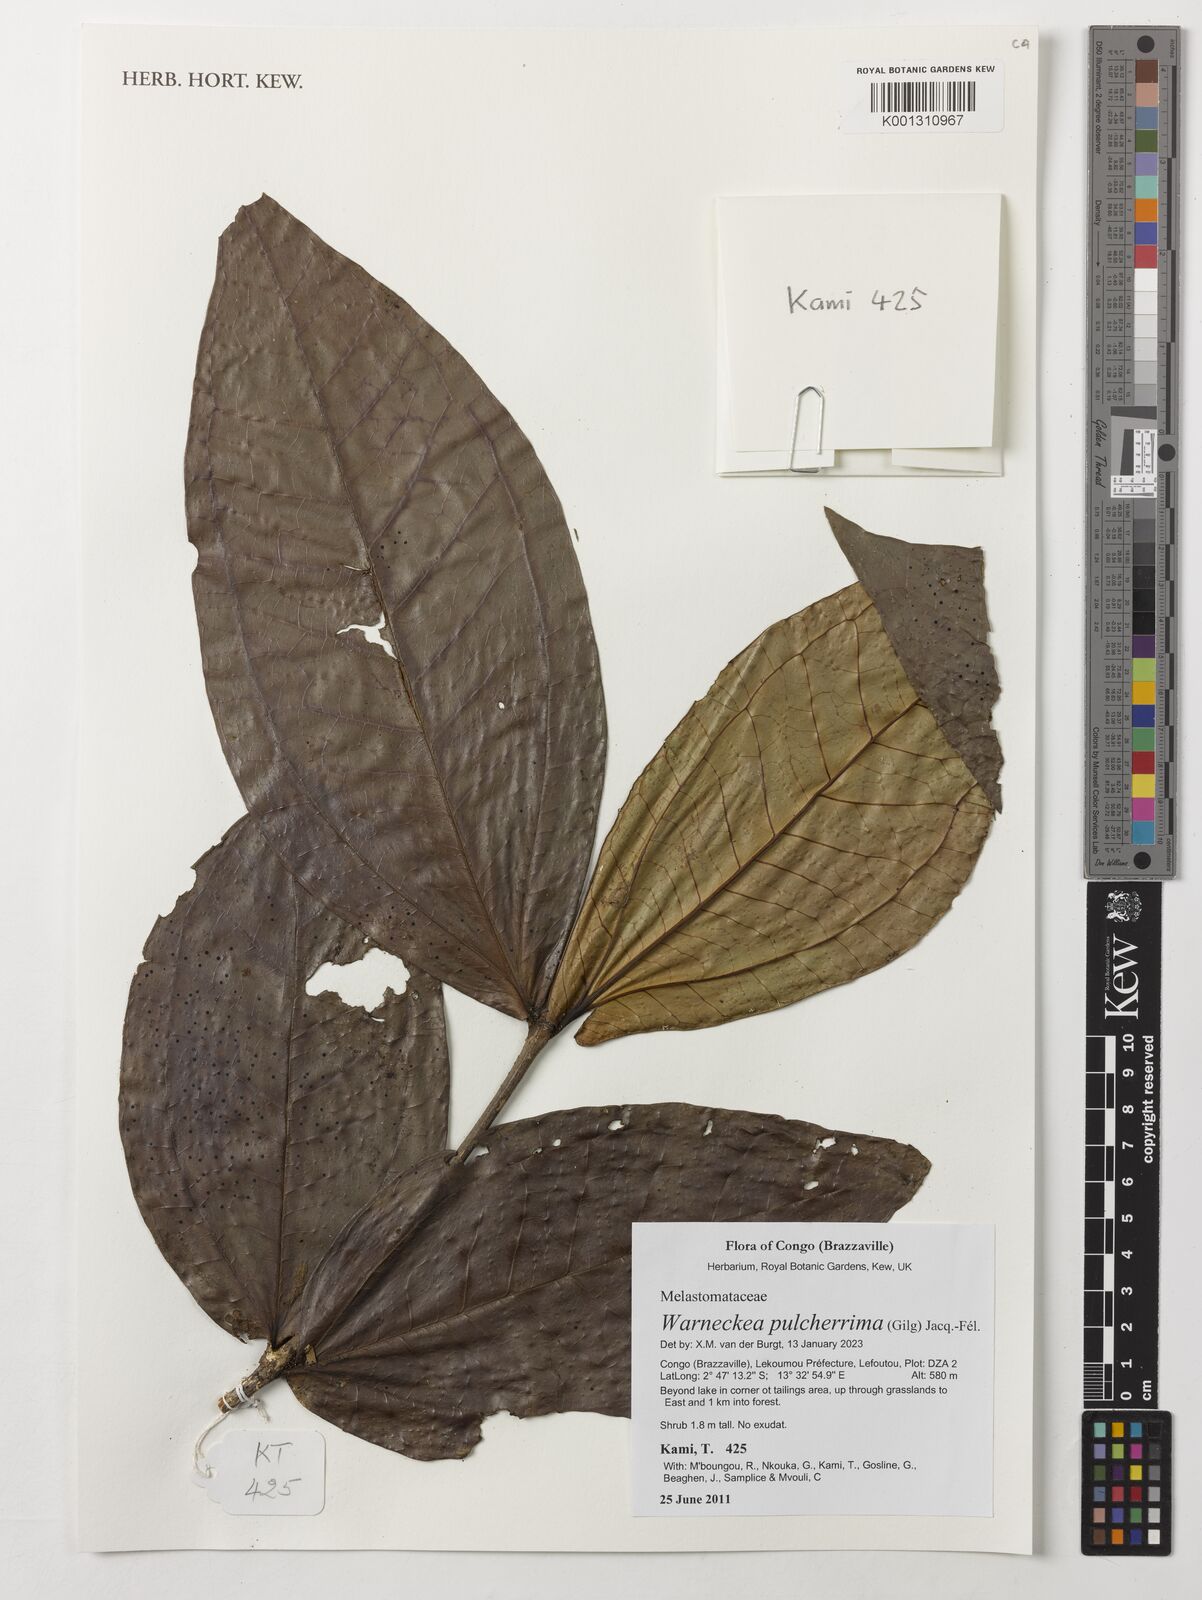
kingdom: Plantae
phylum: Tracheophyta
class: Magnoliopsida
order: Myrtales
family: Melastomataceae
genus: Warneckea
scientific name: Warneckea pulcherrima
